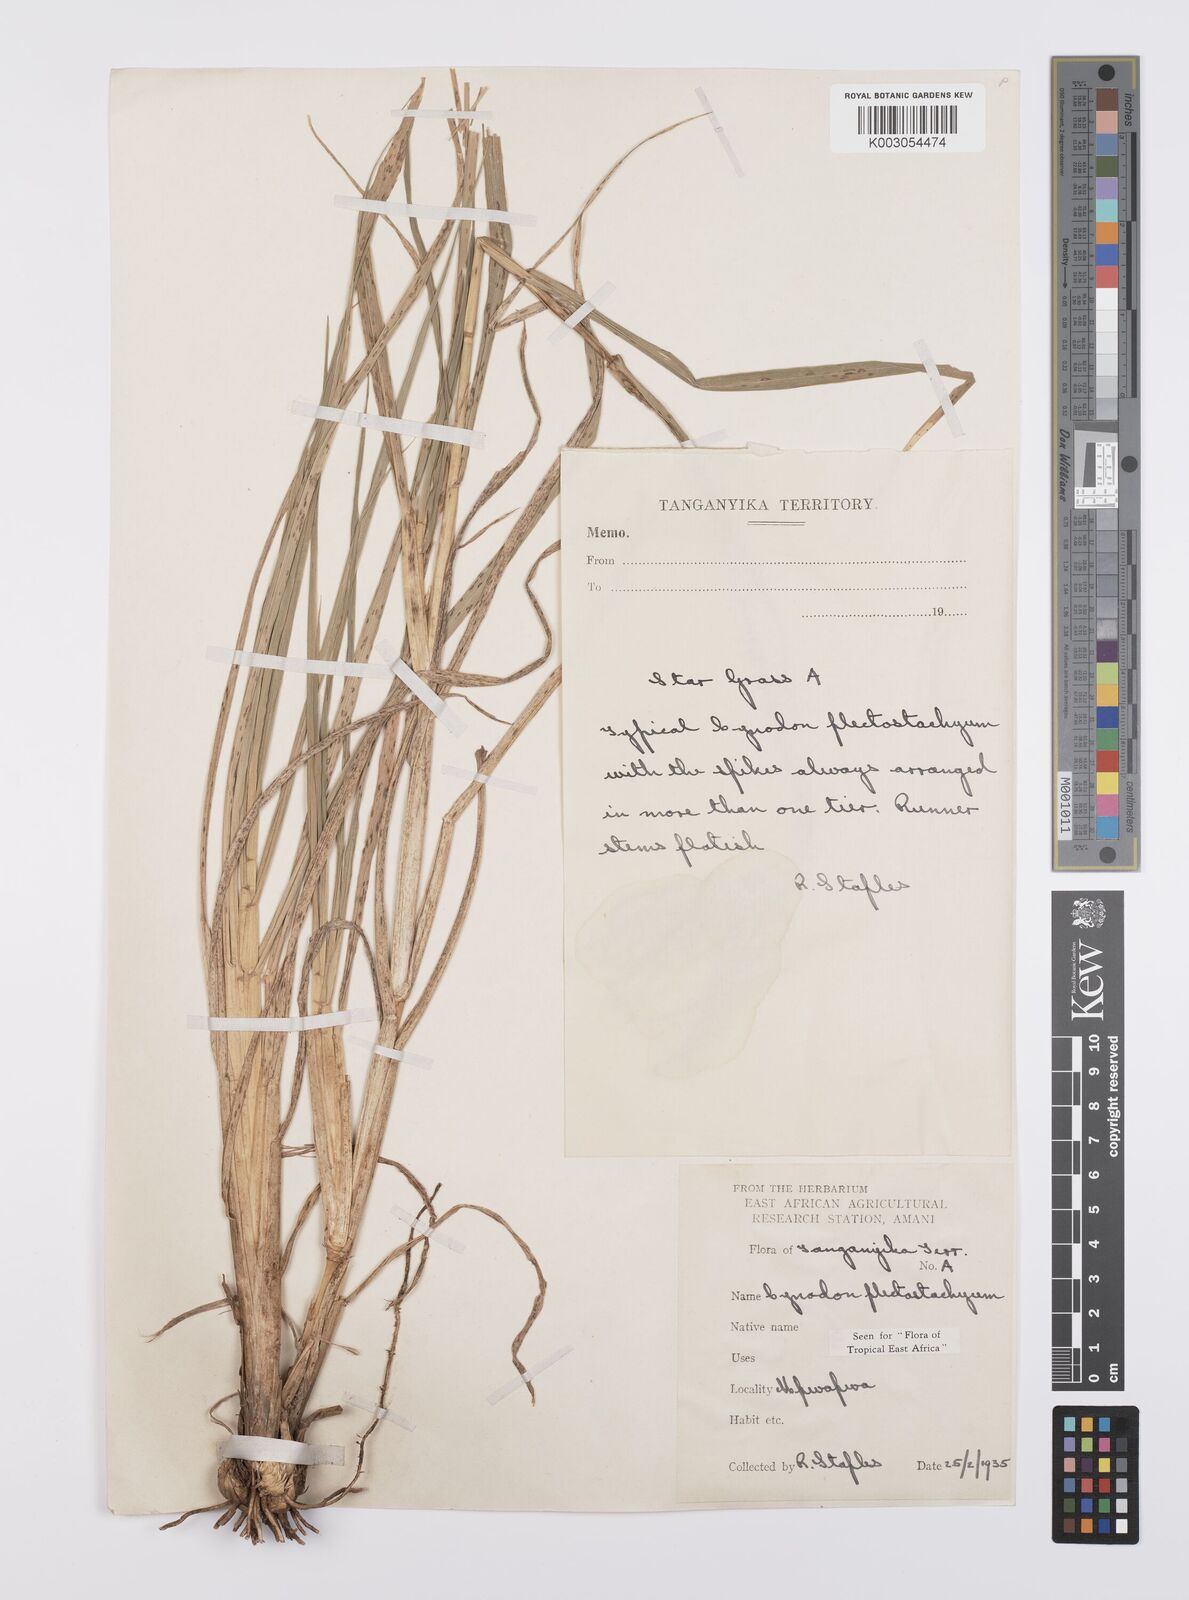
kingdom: Plantae
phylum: Tracheophyta
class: Liliopsida
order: Poales
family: Poaceae
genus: Cynodon
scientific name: Cynodon plectostachyus
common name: Stargrass
